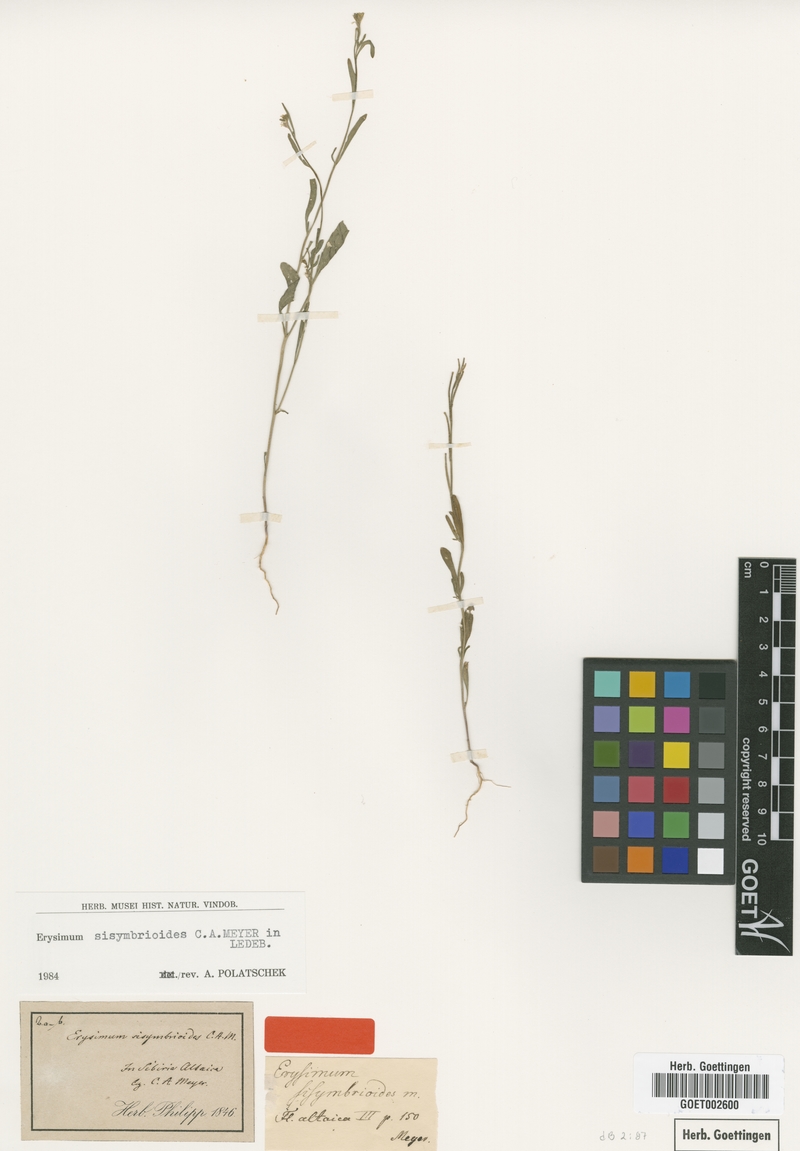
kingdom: Plantae
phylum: Tracheophyta
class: Magnoliopsida
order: Brassicales
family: Brassicaceae
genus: Erysimum
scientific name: Erysimum sisymbrioides
